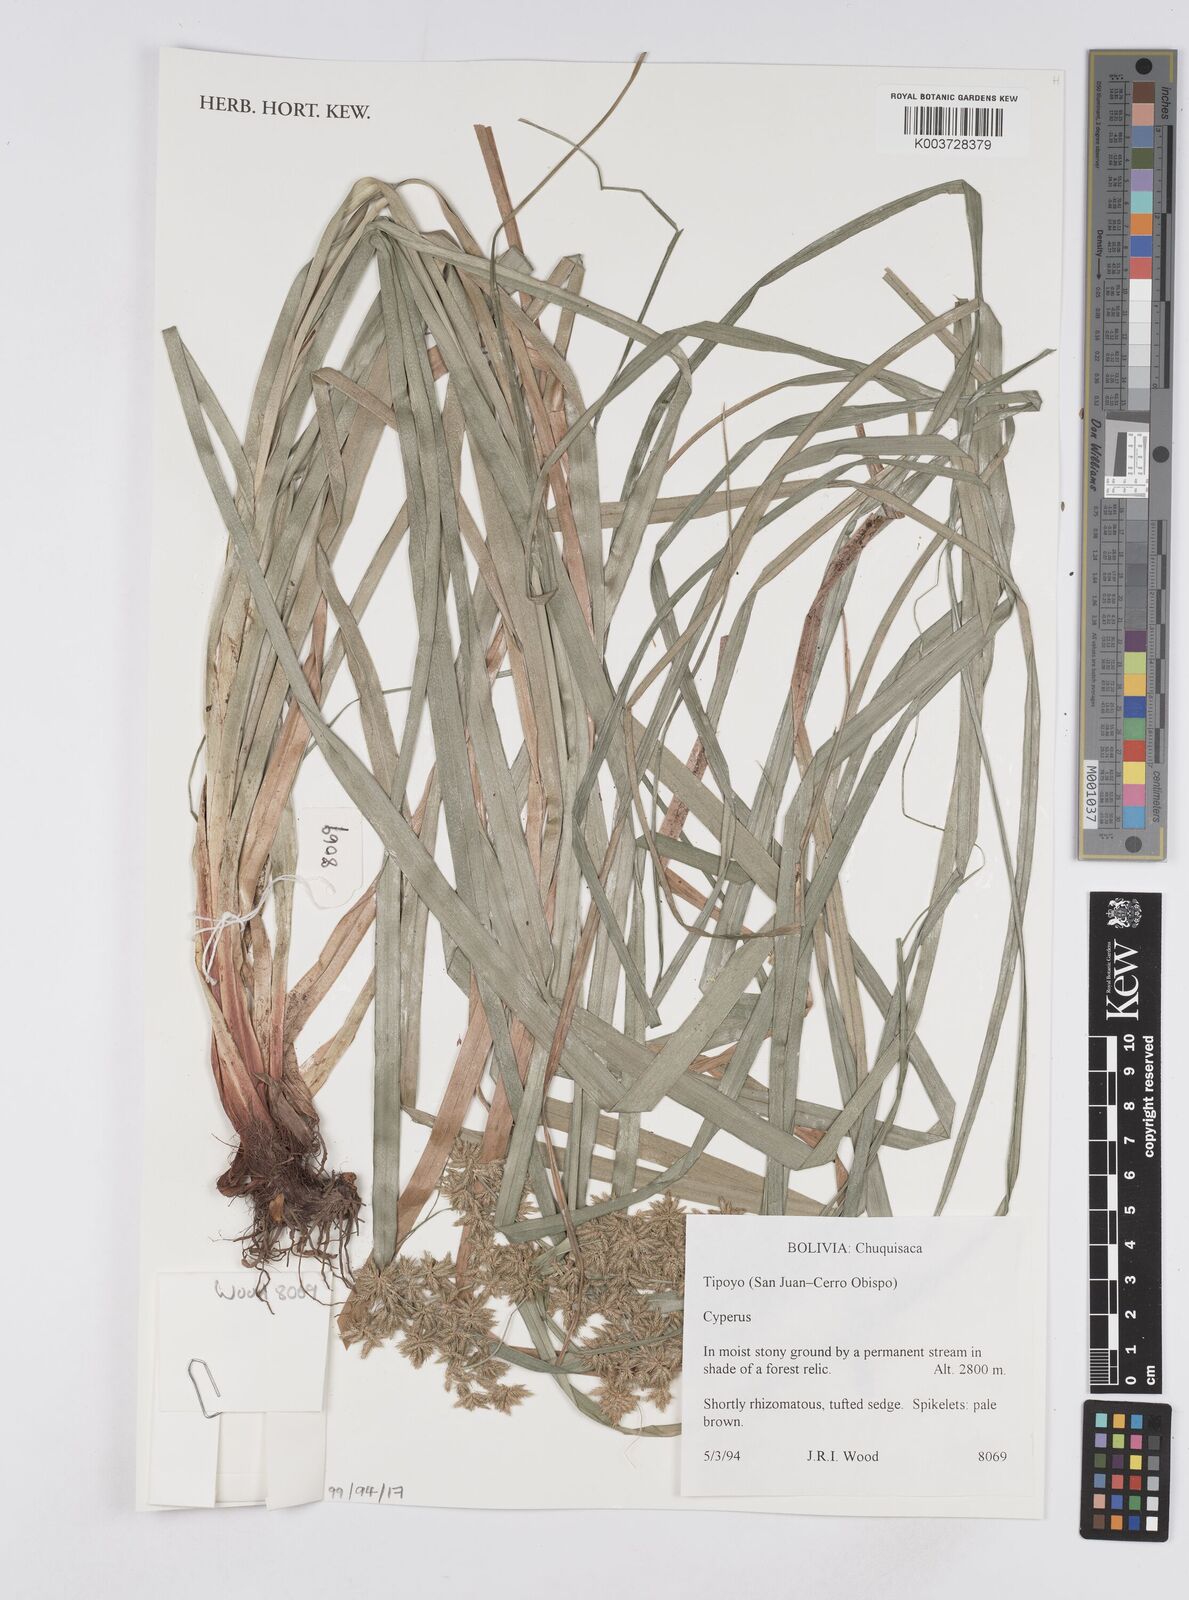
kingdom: Plantae
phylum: Tracheophyta
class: Liliopsida
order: Poales
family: Cyperaceae
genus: Cyperus
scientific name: Cyperus
